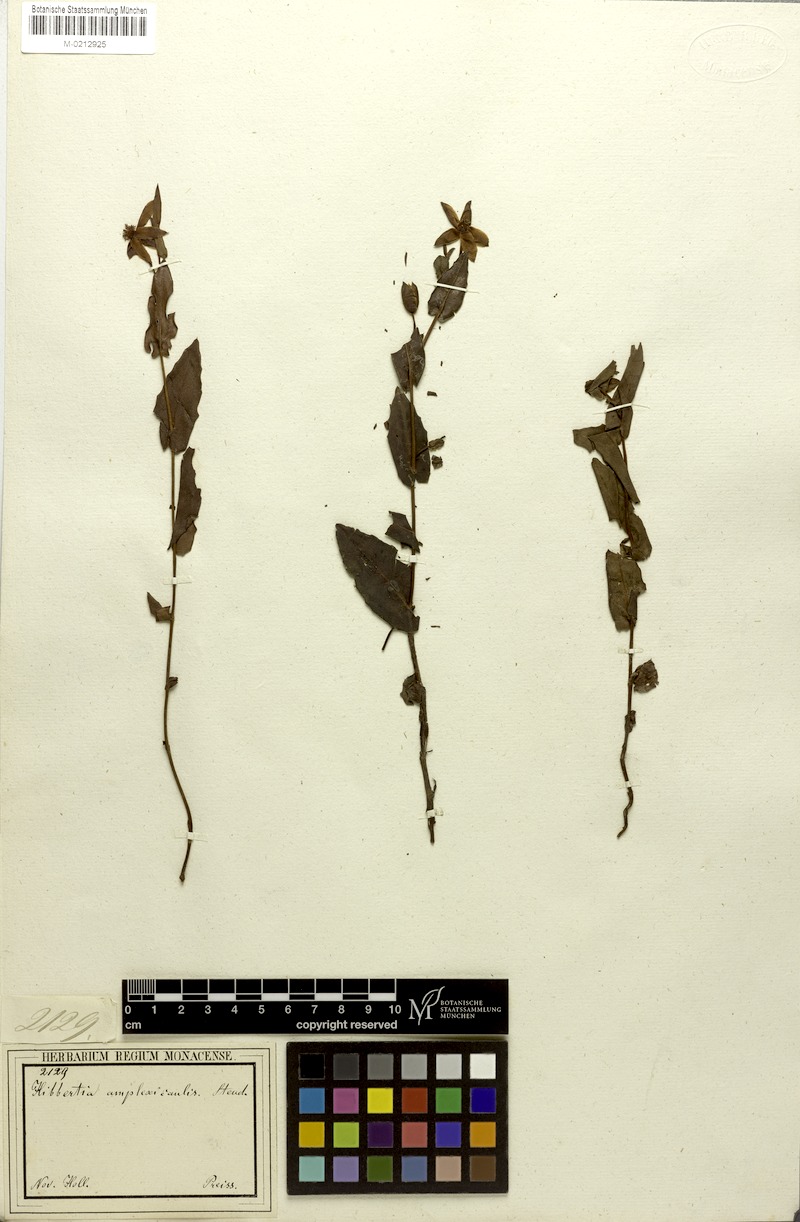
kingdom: Plantae
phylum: Tracheophyta
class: Magnoliopsida
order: Dilleniales
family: Dilleniaceae
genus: Hibbertia
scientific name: Hibbertia amplexicaulis
